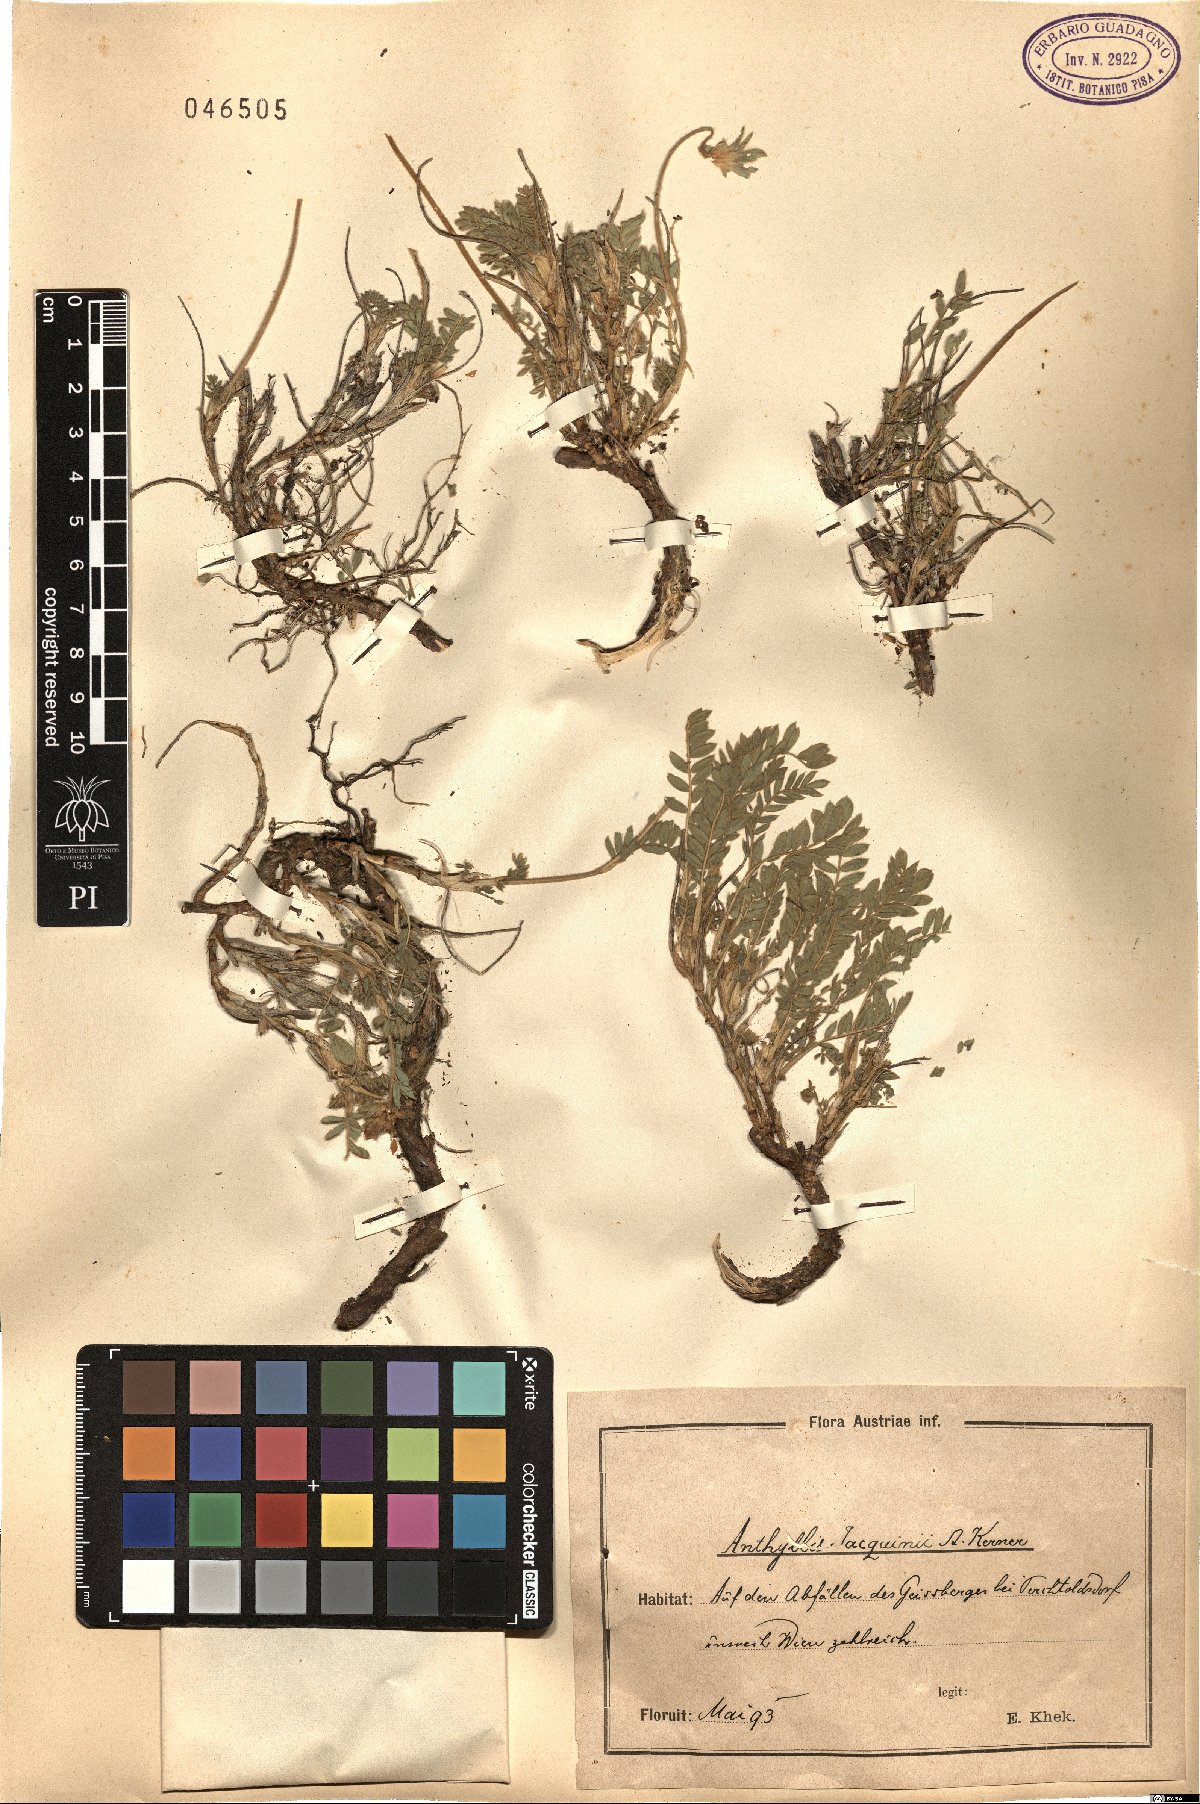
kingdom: Plantae
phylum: Tracheophyta
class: Magnoliopsida
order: Fabales
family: Fabaceae
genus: Anthyllis
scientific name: Anthyllis montana
